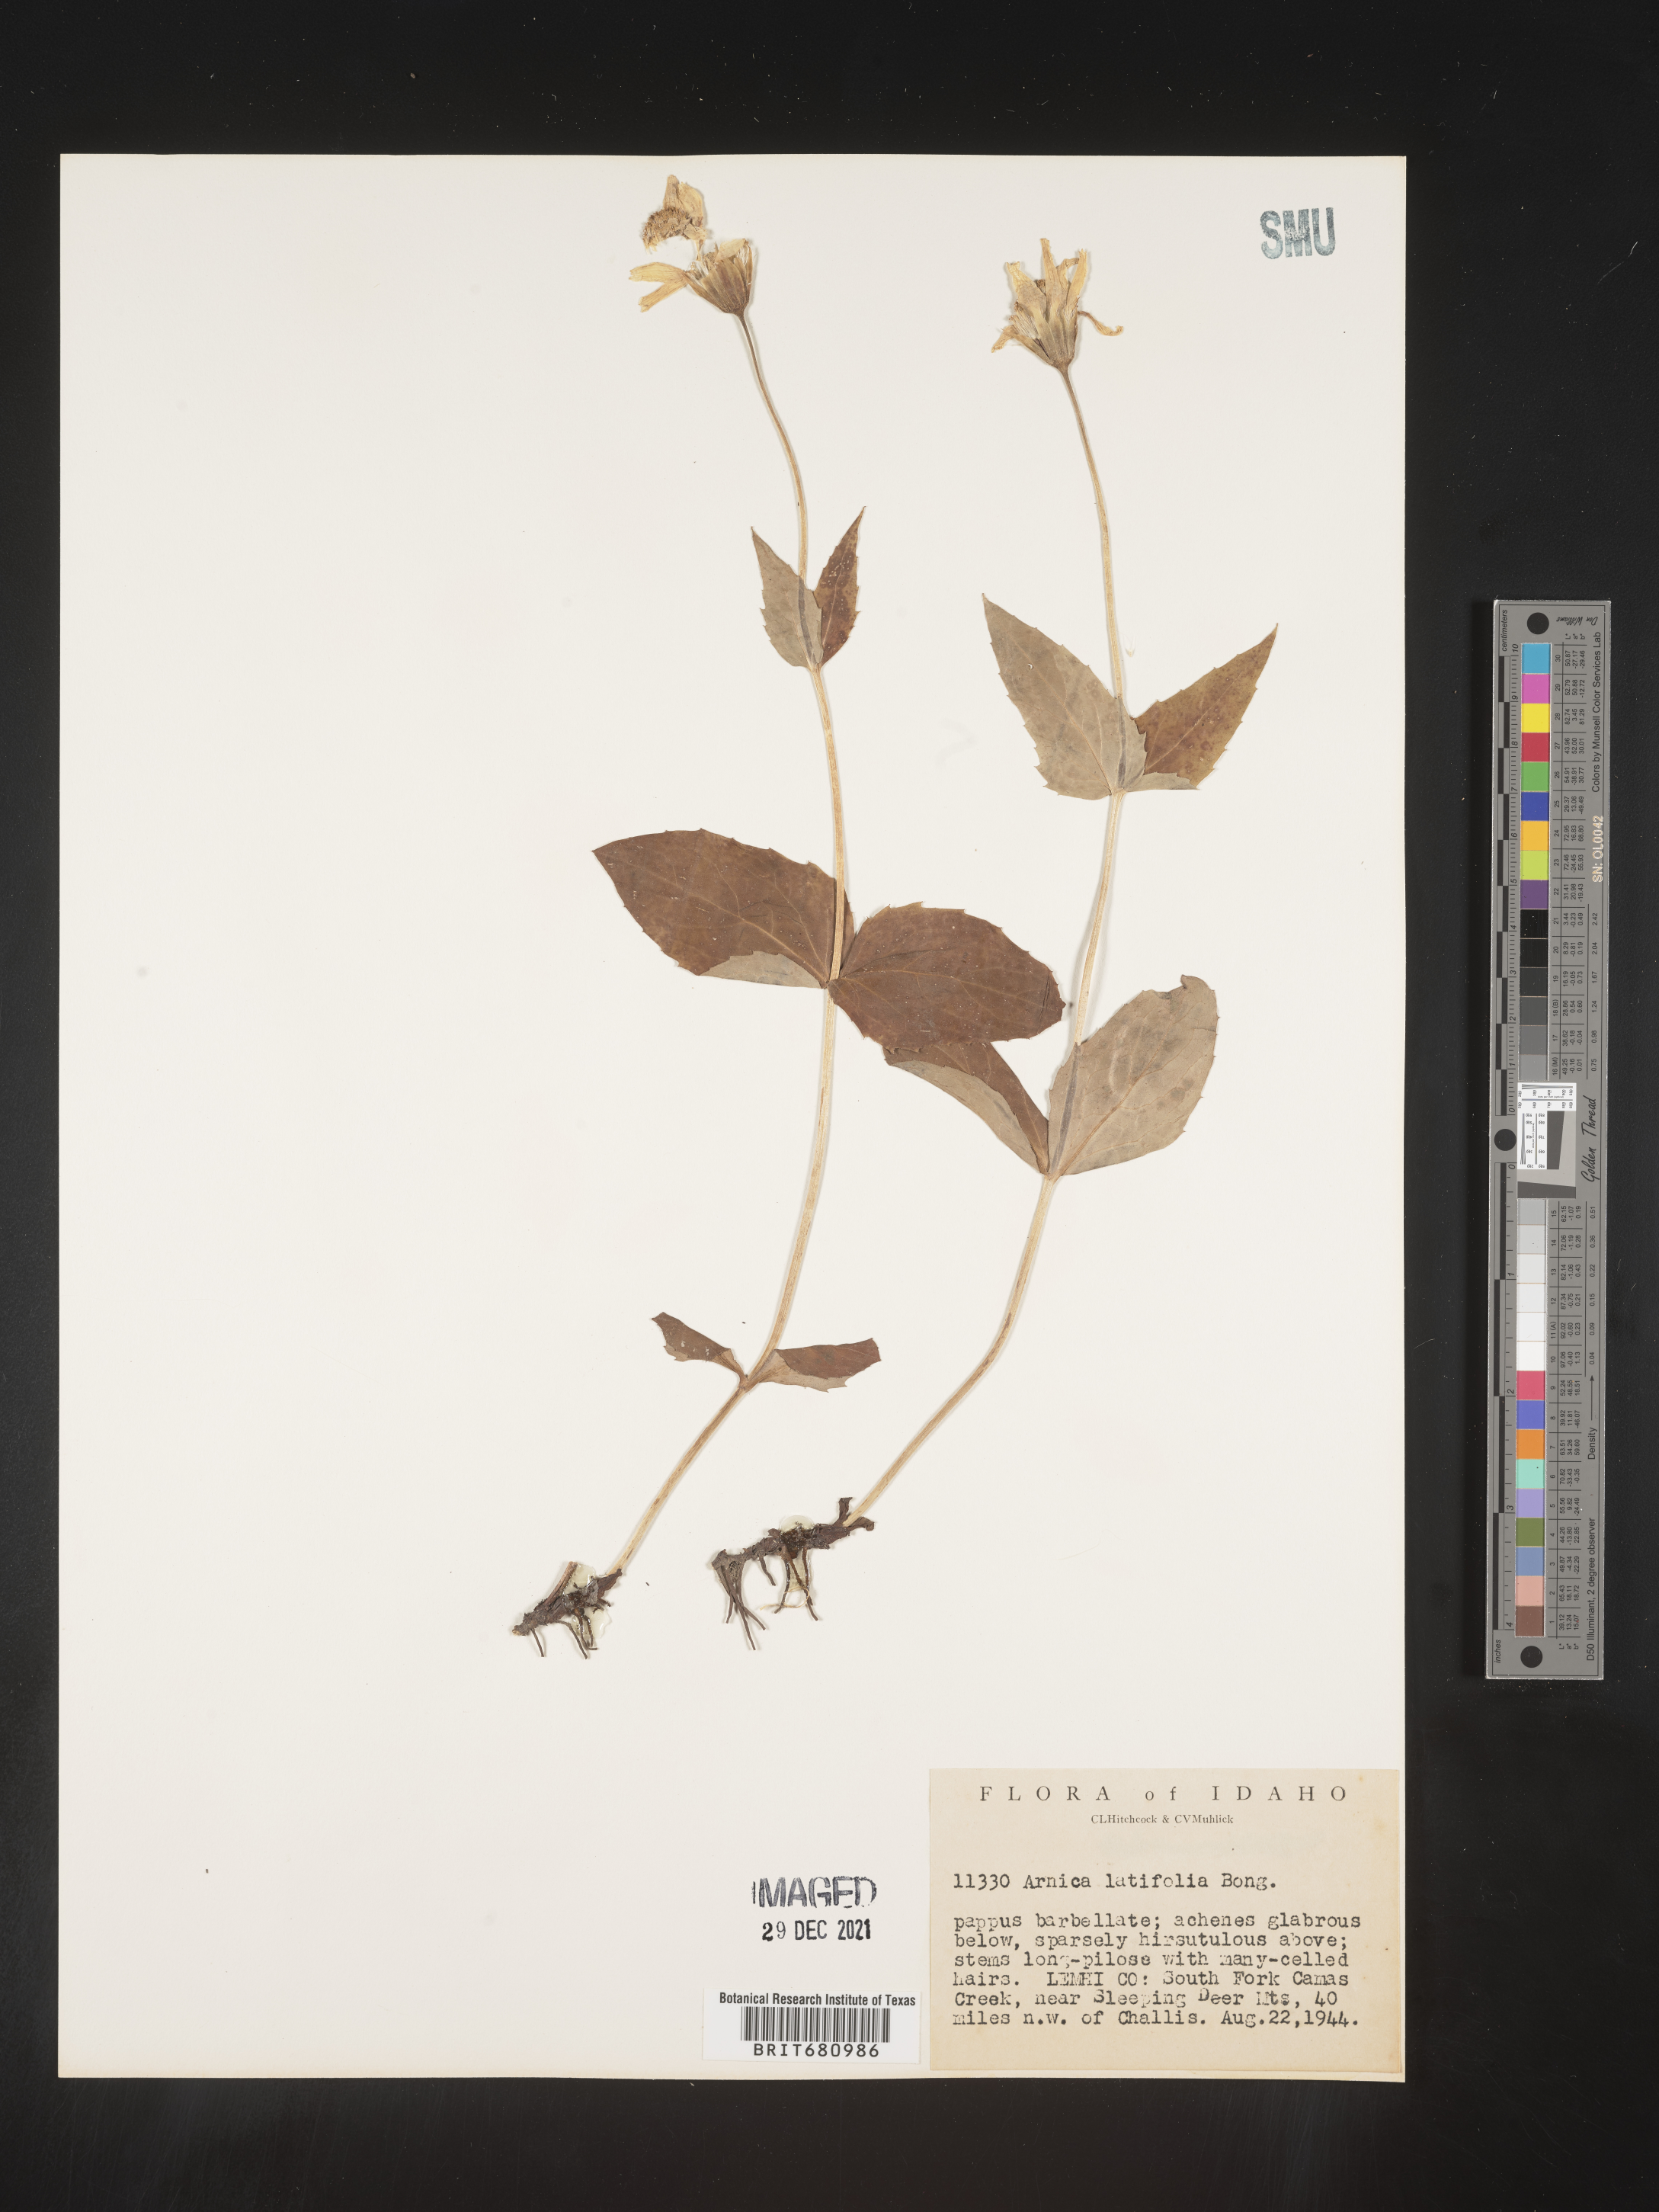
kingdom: Plantae
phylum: Tracheophyta
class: Magnoliopsida
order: Asterales
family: Asteraceae
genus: Arnica
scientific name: Arnica latifolia
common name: Arnica
